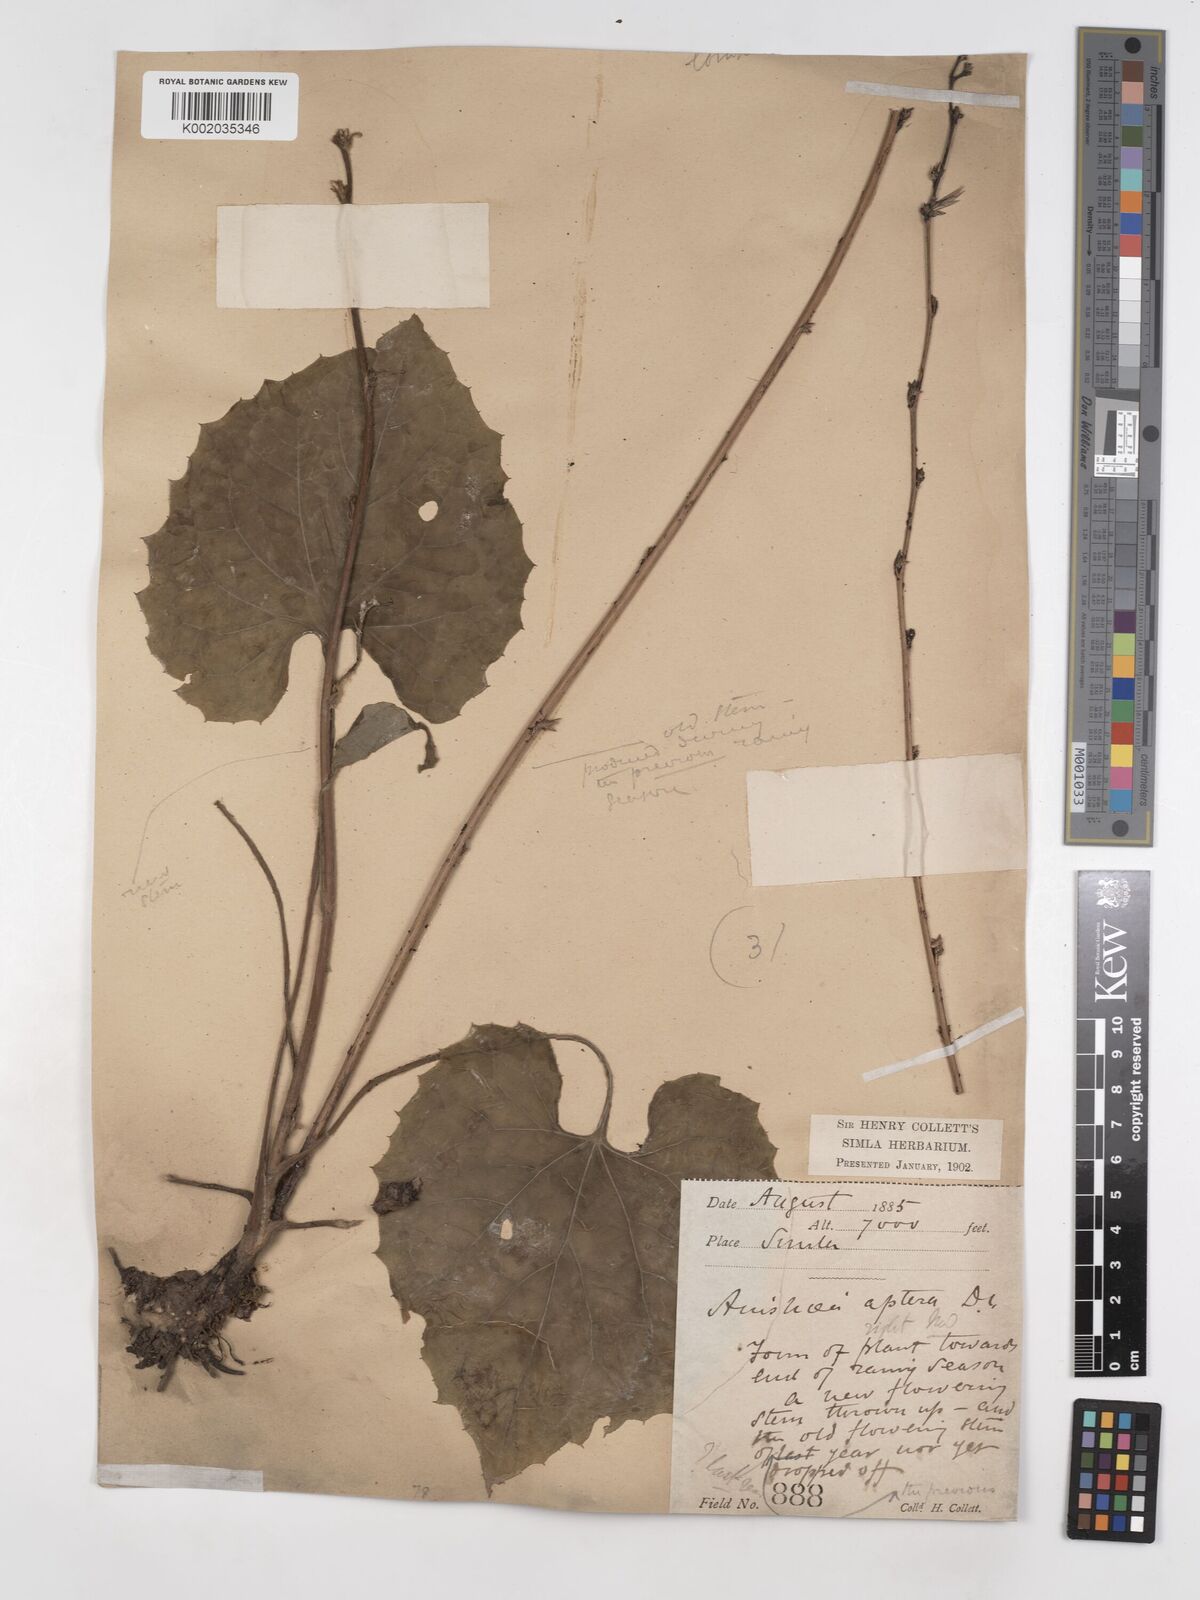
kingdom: Plantae
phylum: Tracheophyta
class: Magnoliopsida
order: Asterales
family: Asteraceae
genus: Ainsliaea
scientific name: Ainsliaea aptera
